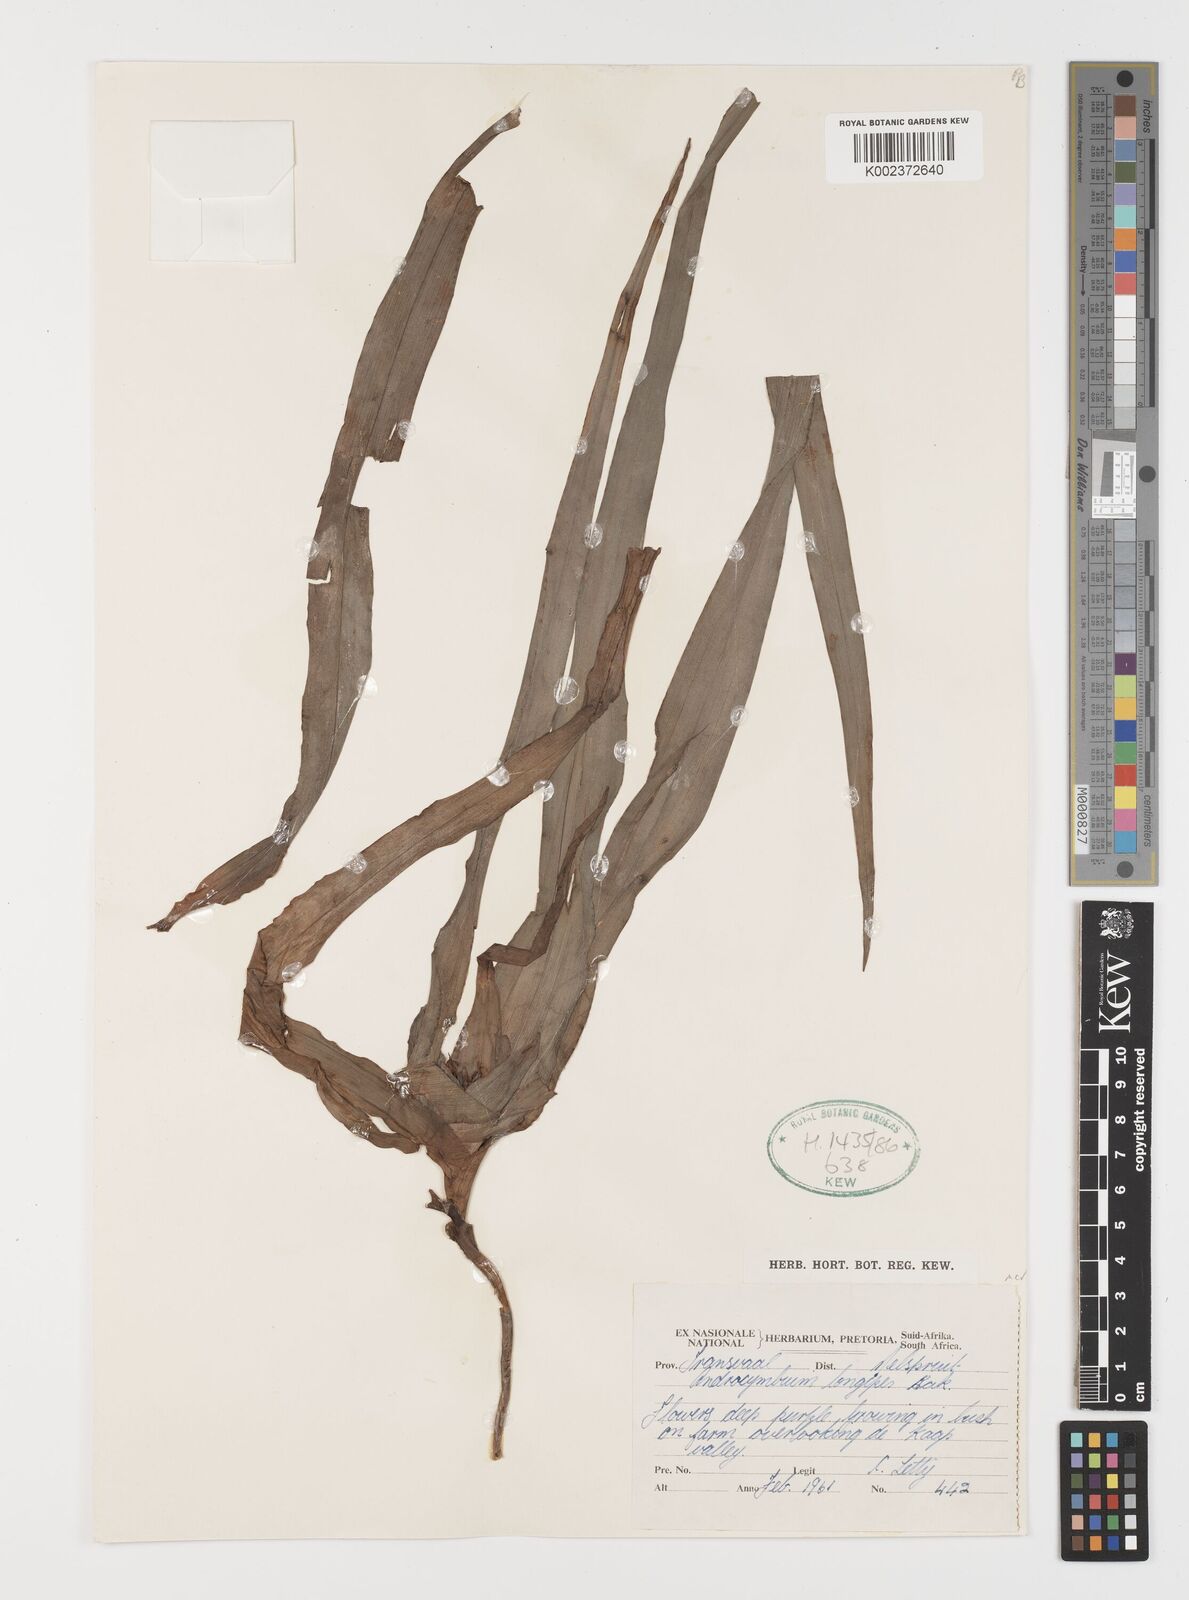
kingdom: Plantae
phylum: Tracheophyta
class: Liliopsida
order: Liliales
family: Colchicaceae
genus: Colchicum
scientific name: Colchicum burkei
